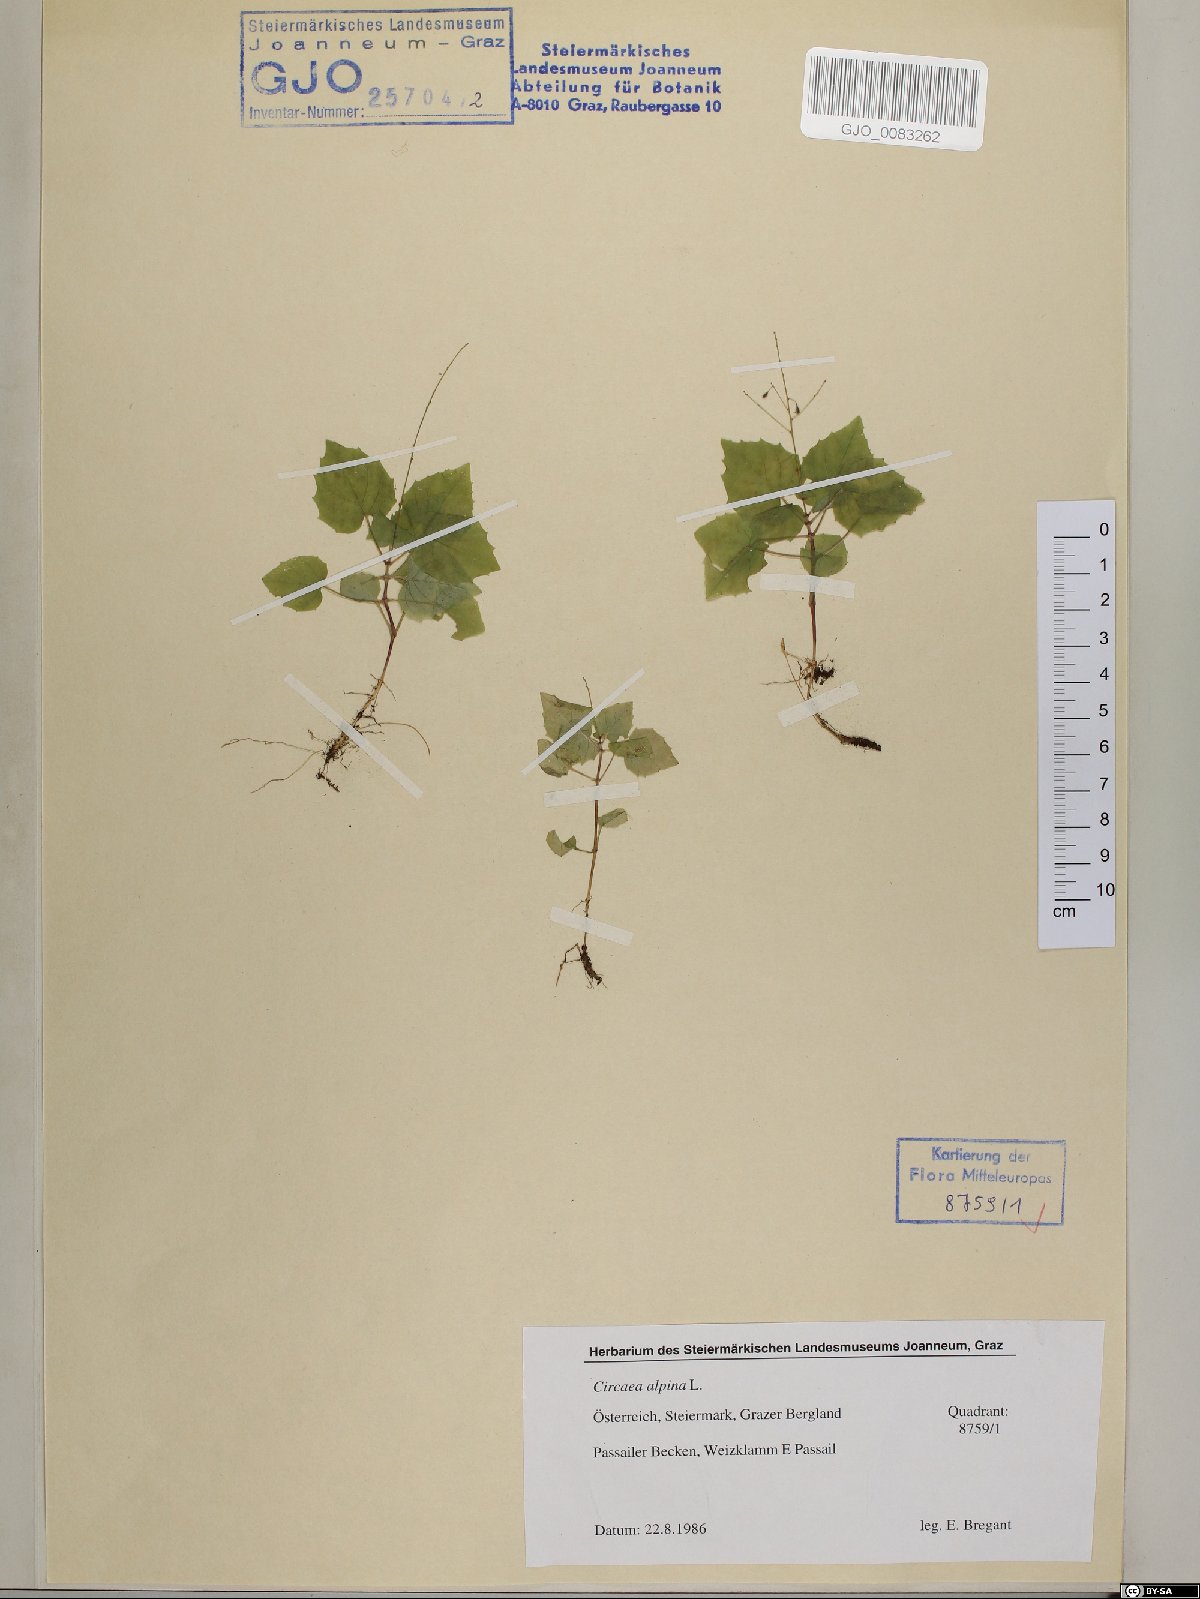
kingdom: Plantae
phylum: Tracheophyta
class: Magnoliopsida
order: Myrtales
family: Onagraceae
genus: Circaea
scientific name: Circaea alpina
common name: Alpine enchanter's-nightshade
